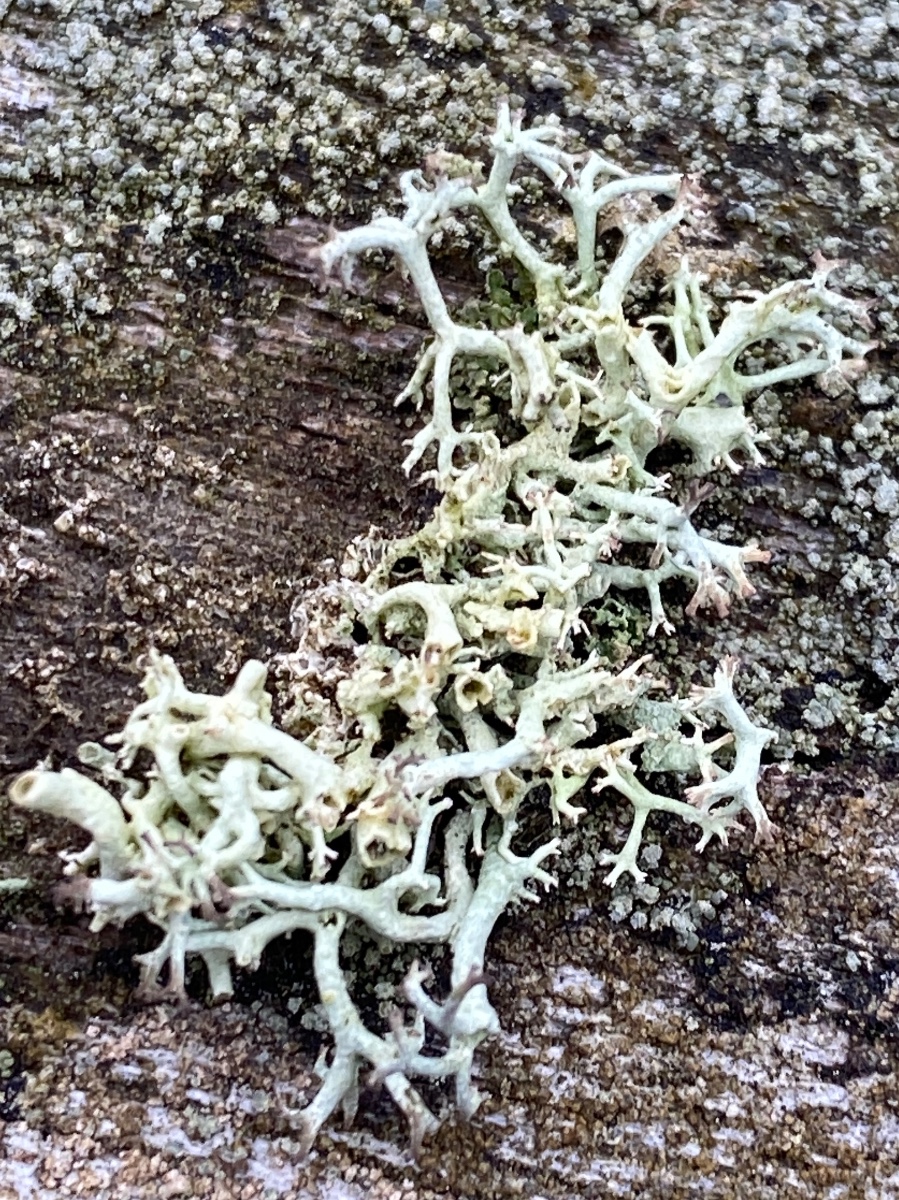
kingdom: Fungi
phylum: Ascomycota
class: Lecanoromycetes
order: Lecanorales
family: Cladoniaceae
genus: Cladonia
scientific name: Cladonia uncialis
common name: pigget bægerlav
